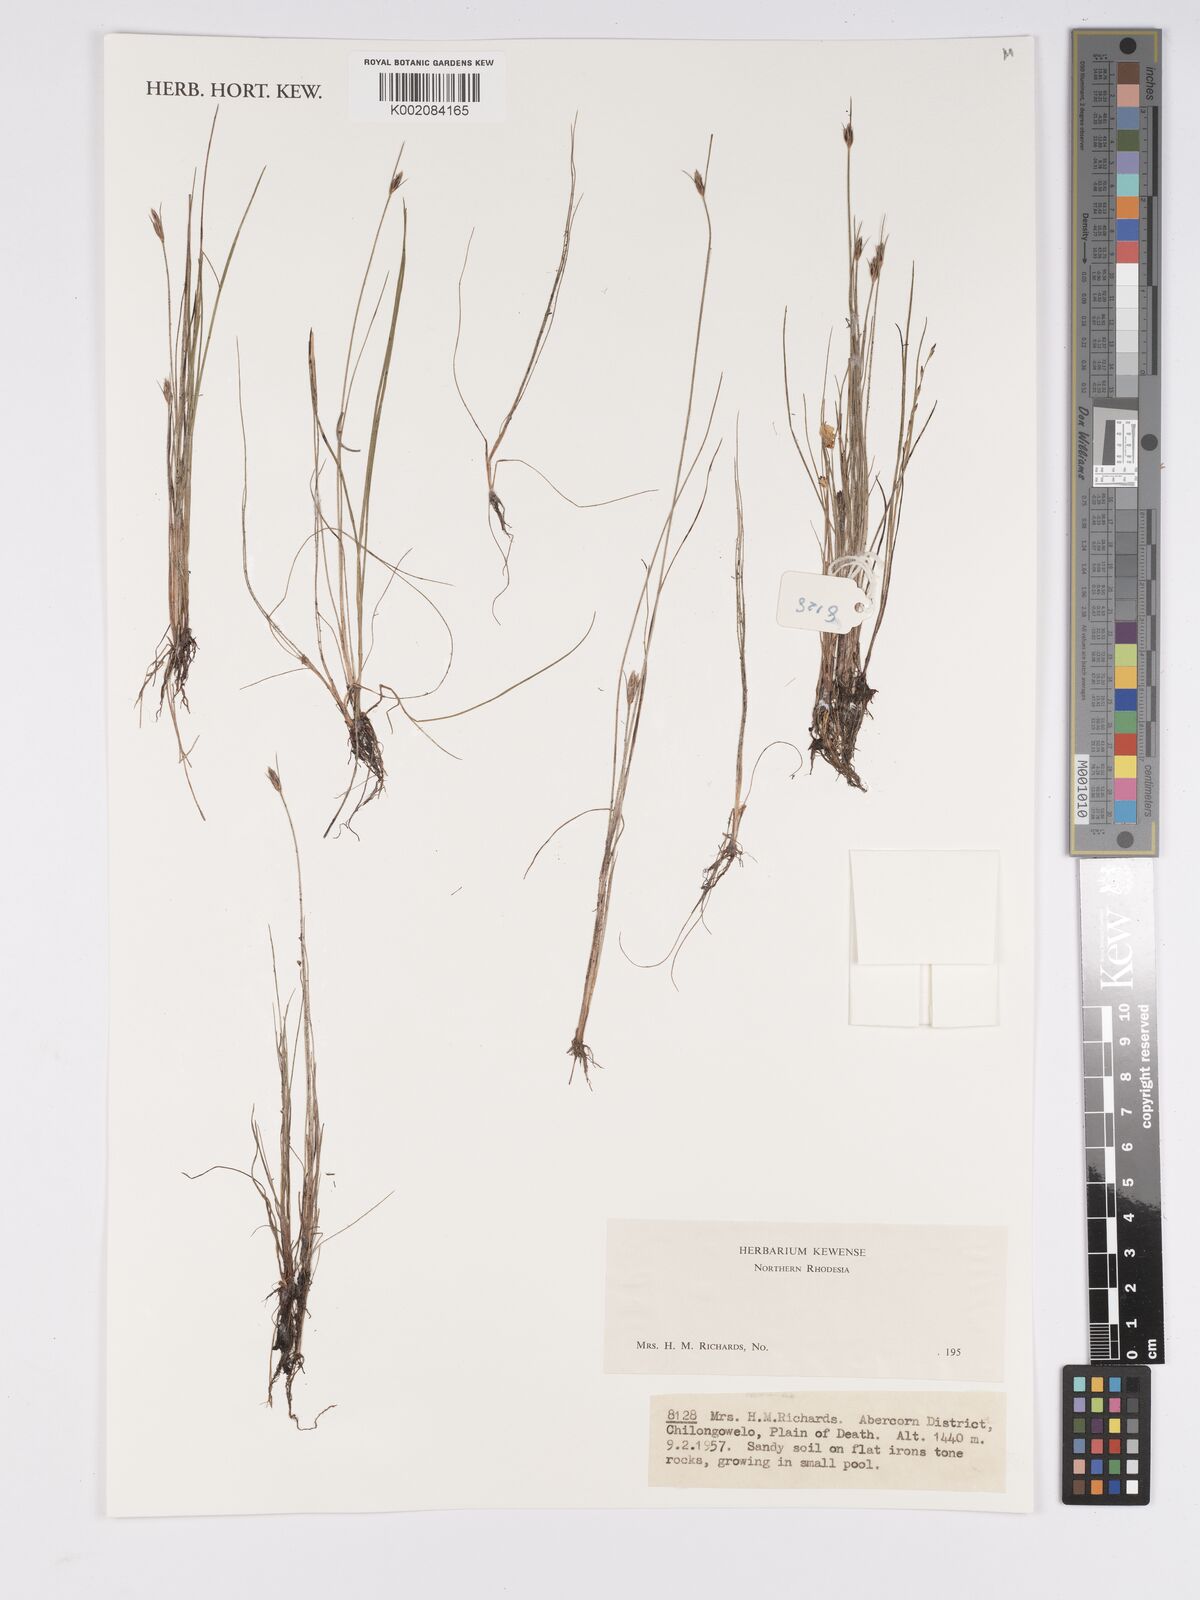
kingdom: Plantae
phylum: Tracheophyta
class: Liliopsida
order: Poales
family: Cyperaceae
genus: Bulbostylis
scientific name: Bulbostylis
